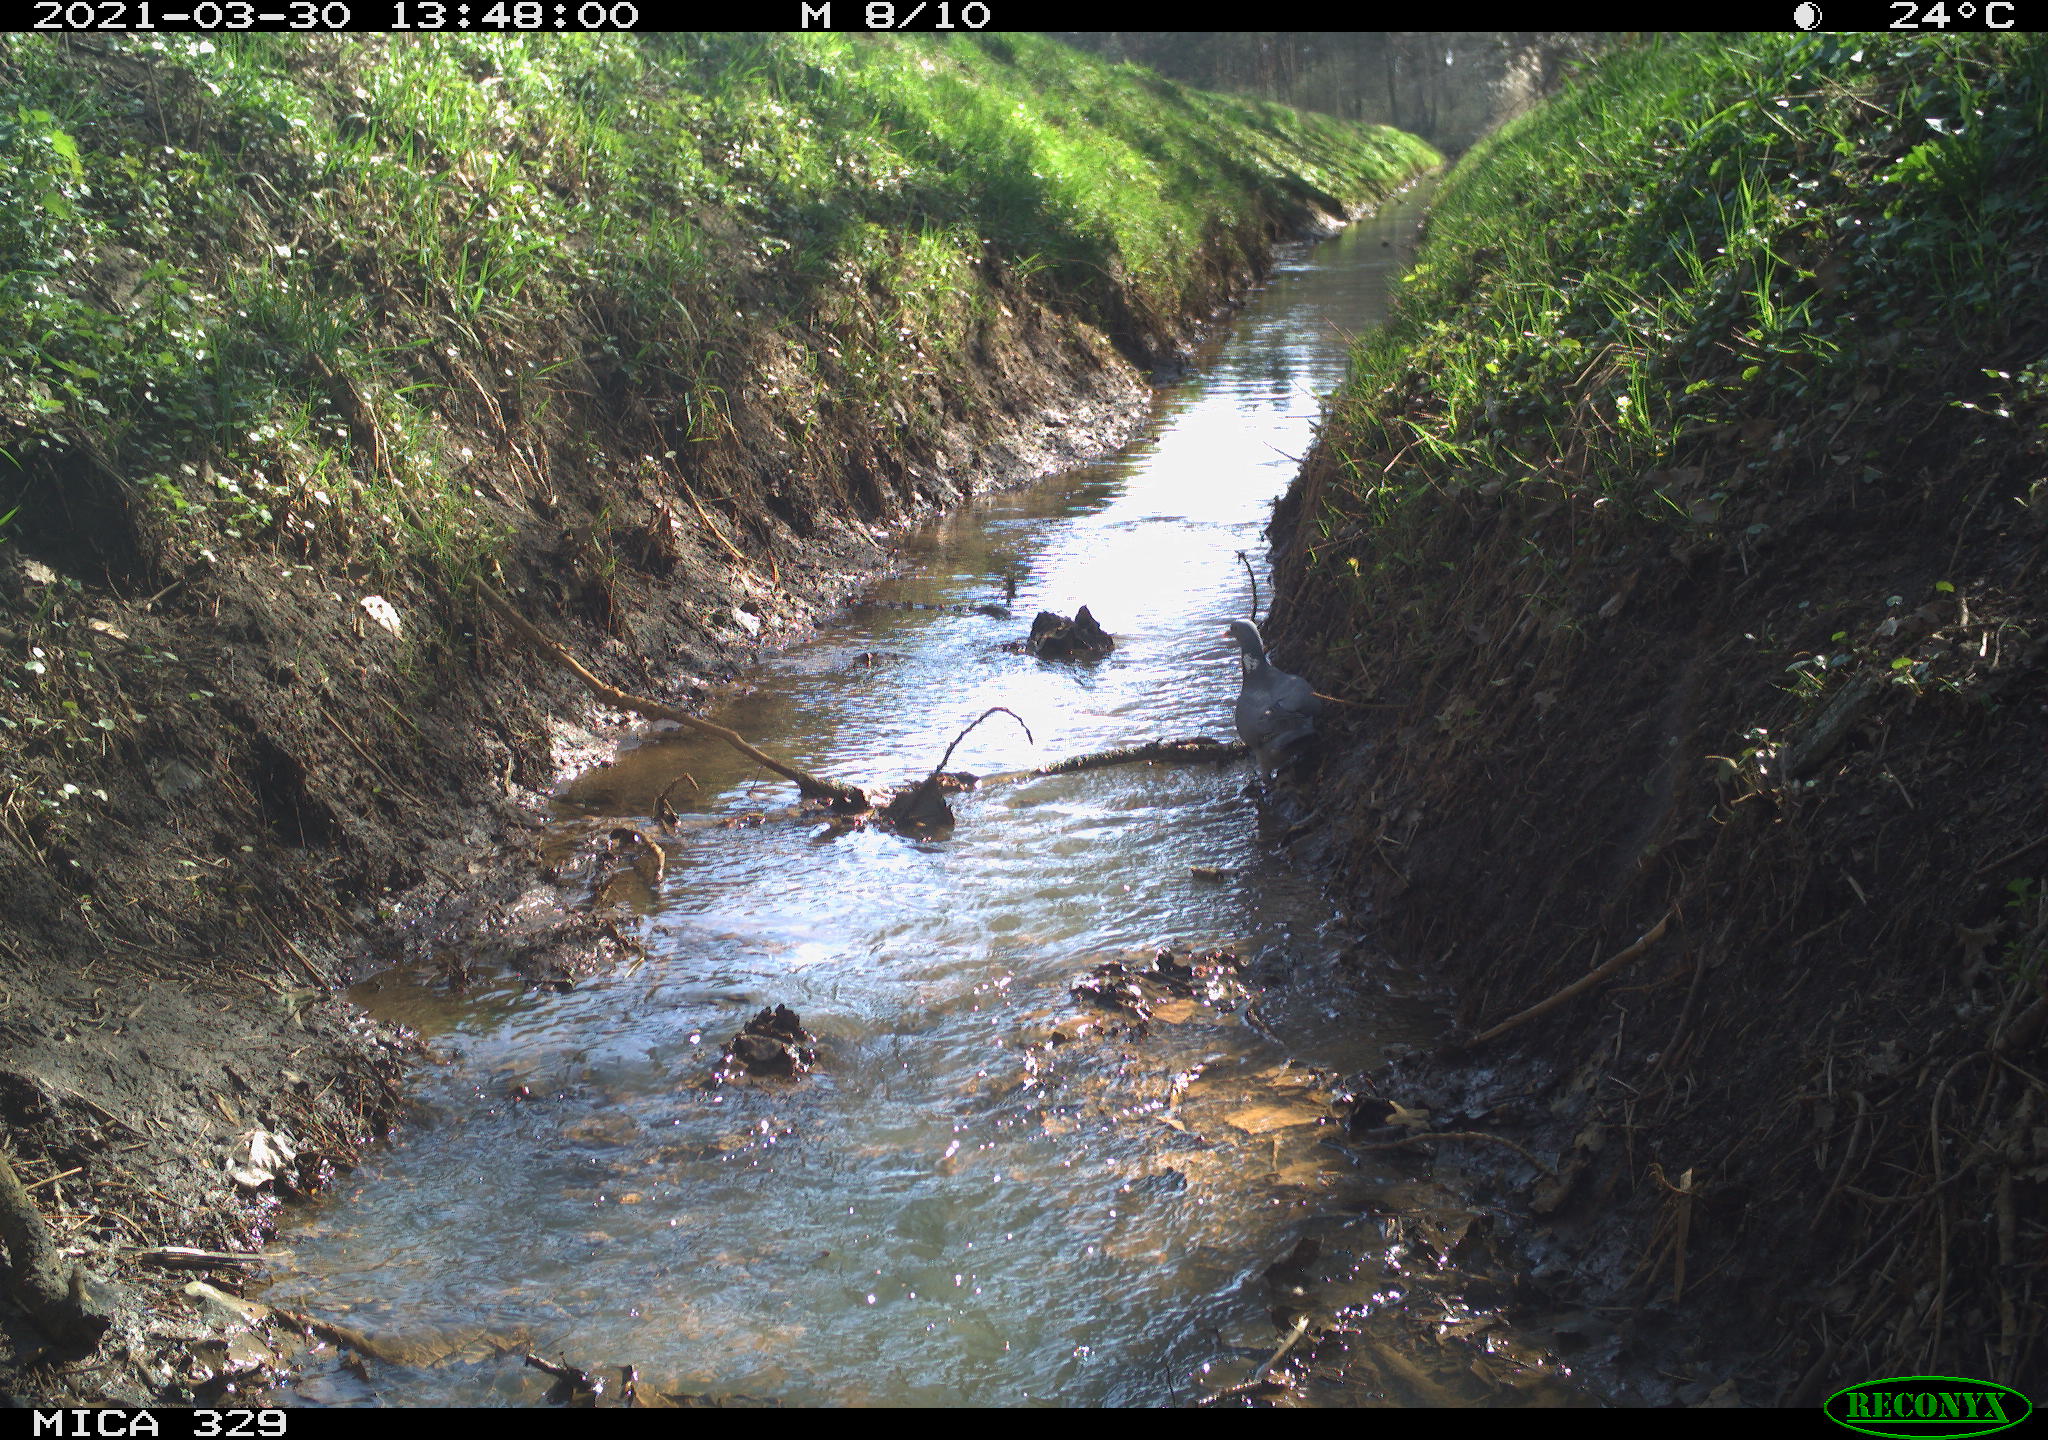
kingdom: Animalia
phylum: Chordata
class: Aves
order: Columbiformes
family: Columbidae
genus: Columba
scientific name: Columba palumbus
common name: Common wood pigeon
